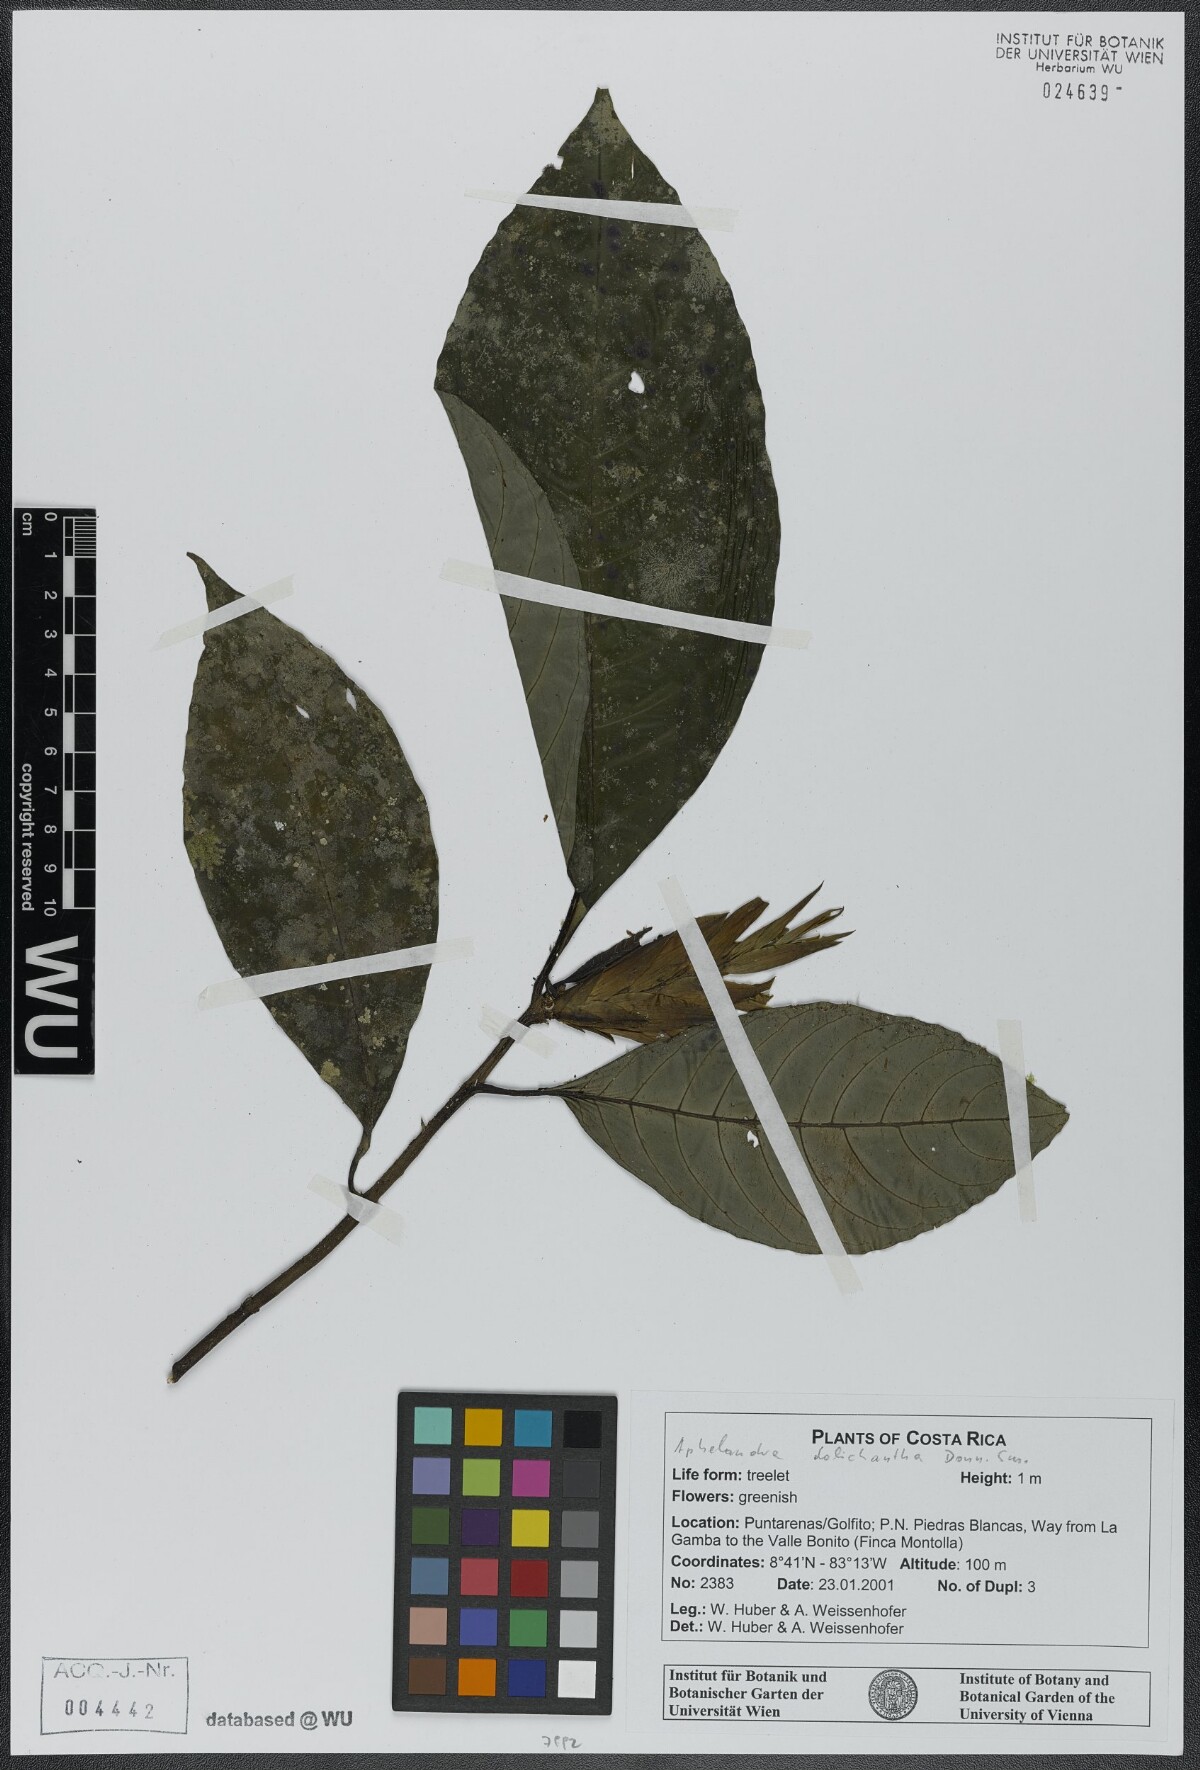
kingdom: Plantae
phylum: Tracheophyta
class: Magnoliopsida
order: Lamiales
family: Acanthaceae
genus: Aphelandra
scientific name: Aphelandra dolichantha
